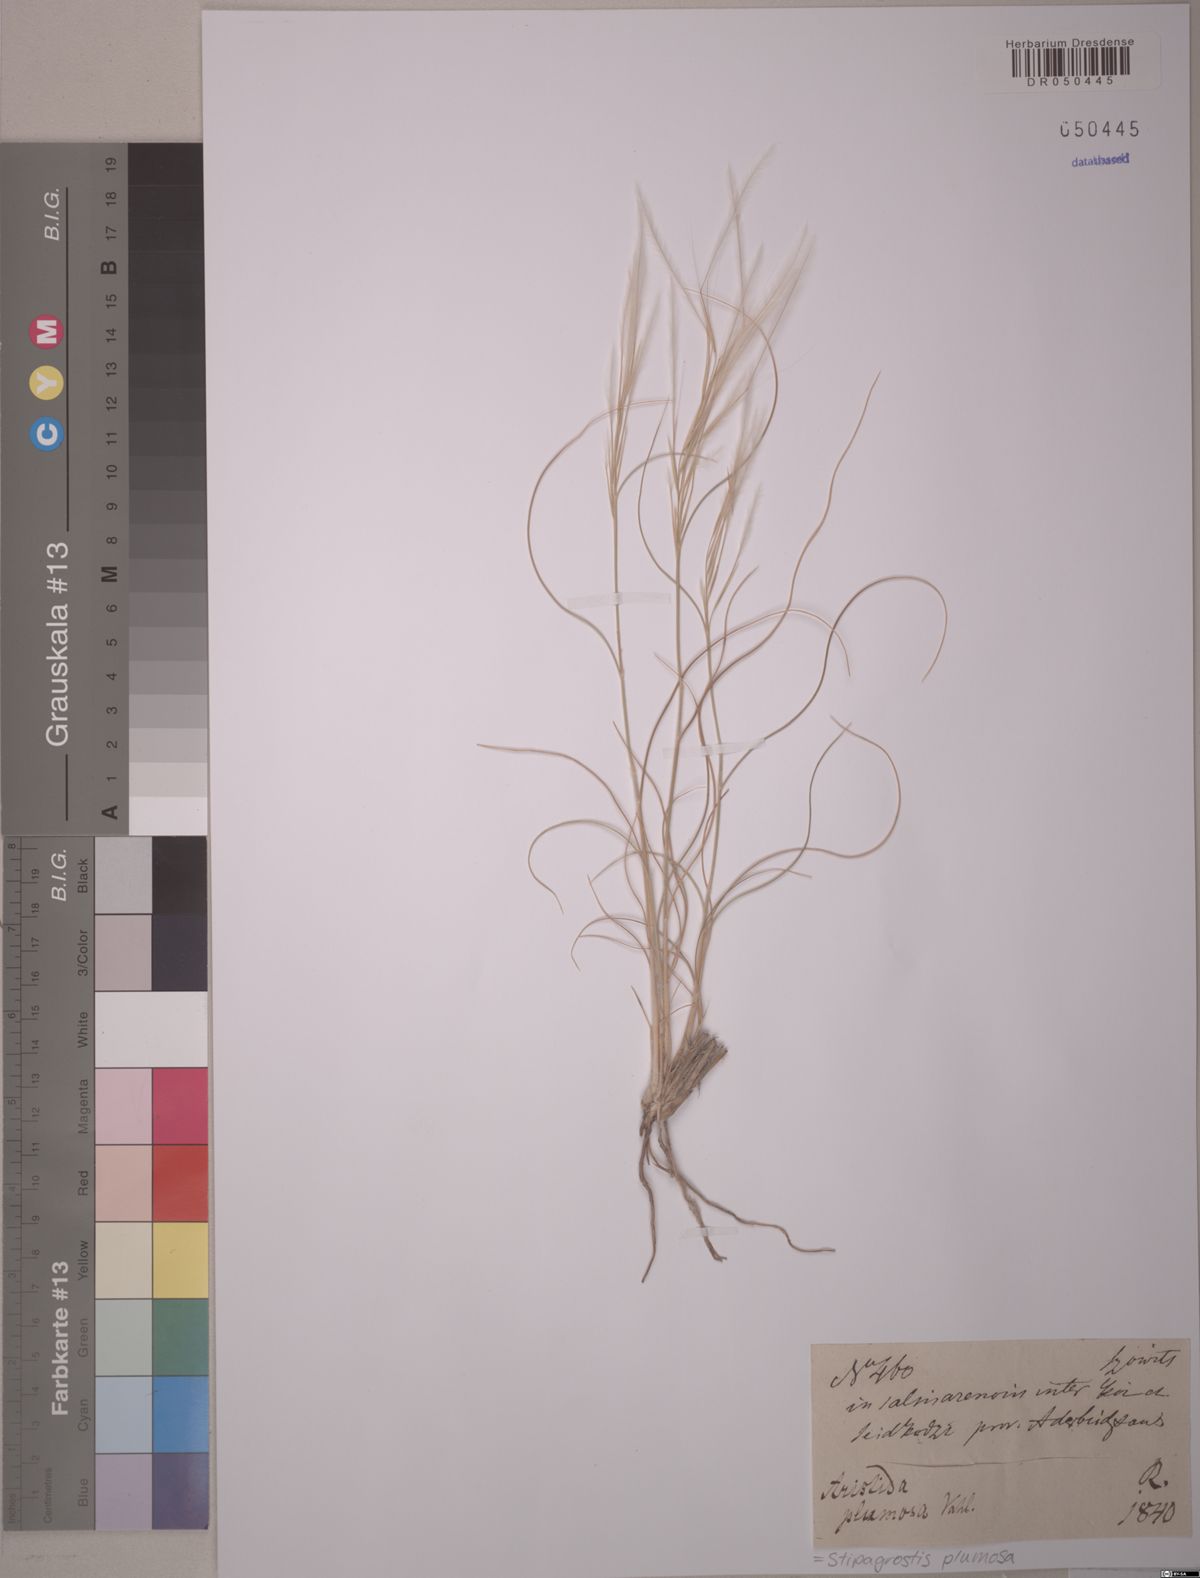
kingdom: Plantae
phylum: Tracheophyta
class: Liliopsida
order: Poales
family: Poaceae
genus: Stipagrostis
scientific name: Stipagrostis plumosa
